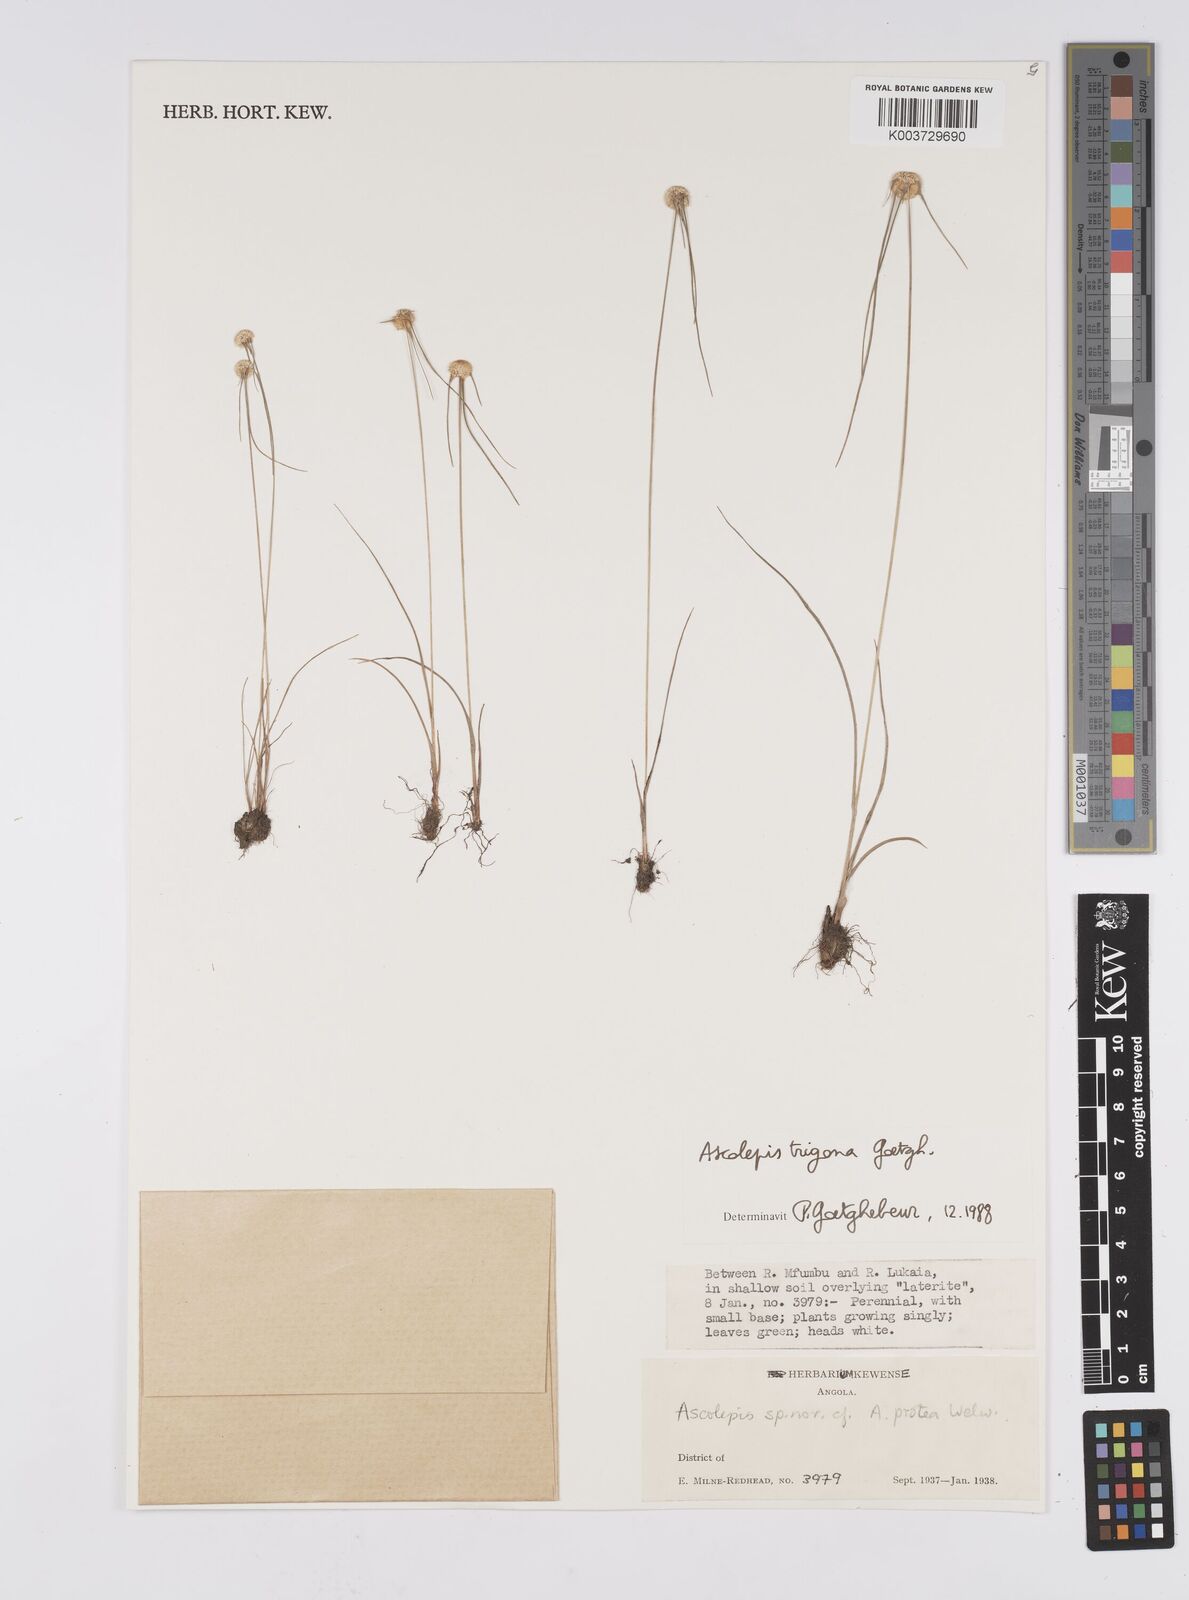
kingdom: Plantae
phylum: Tracheophyta
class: Liliopsida
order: Poales
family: Cyperaceae
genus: Cyperus
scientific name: Cyperus
